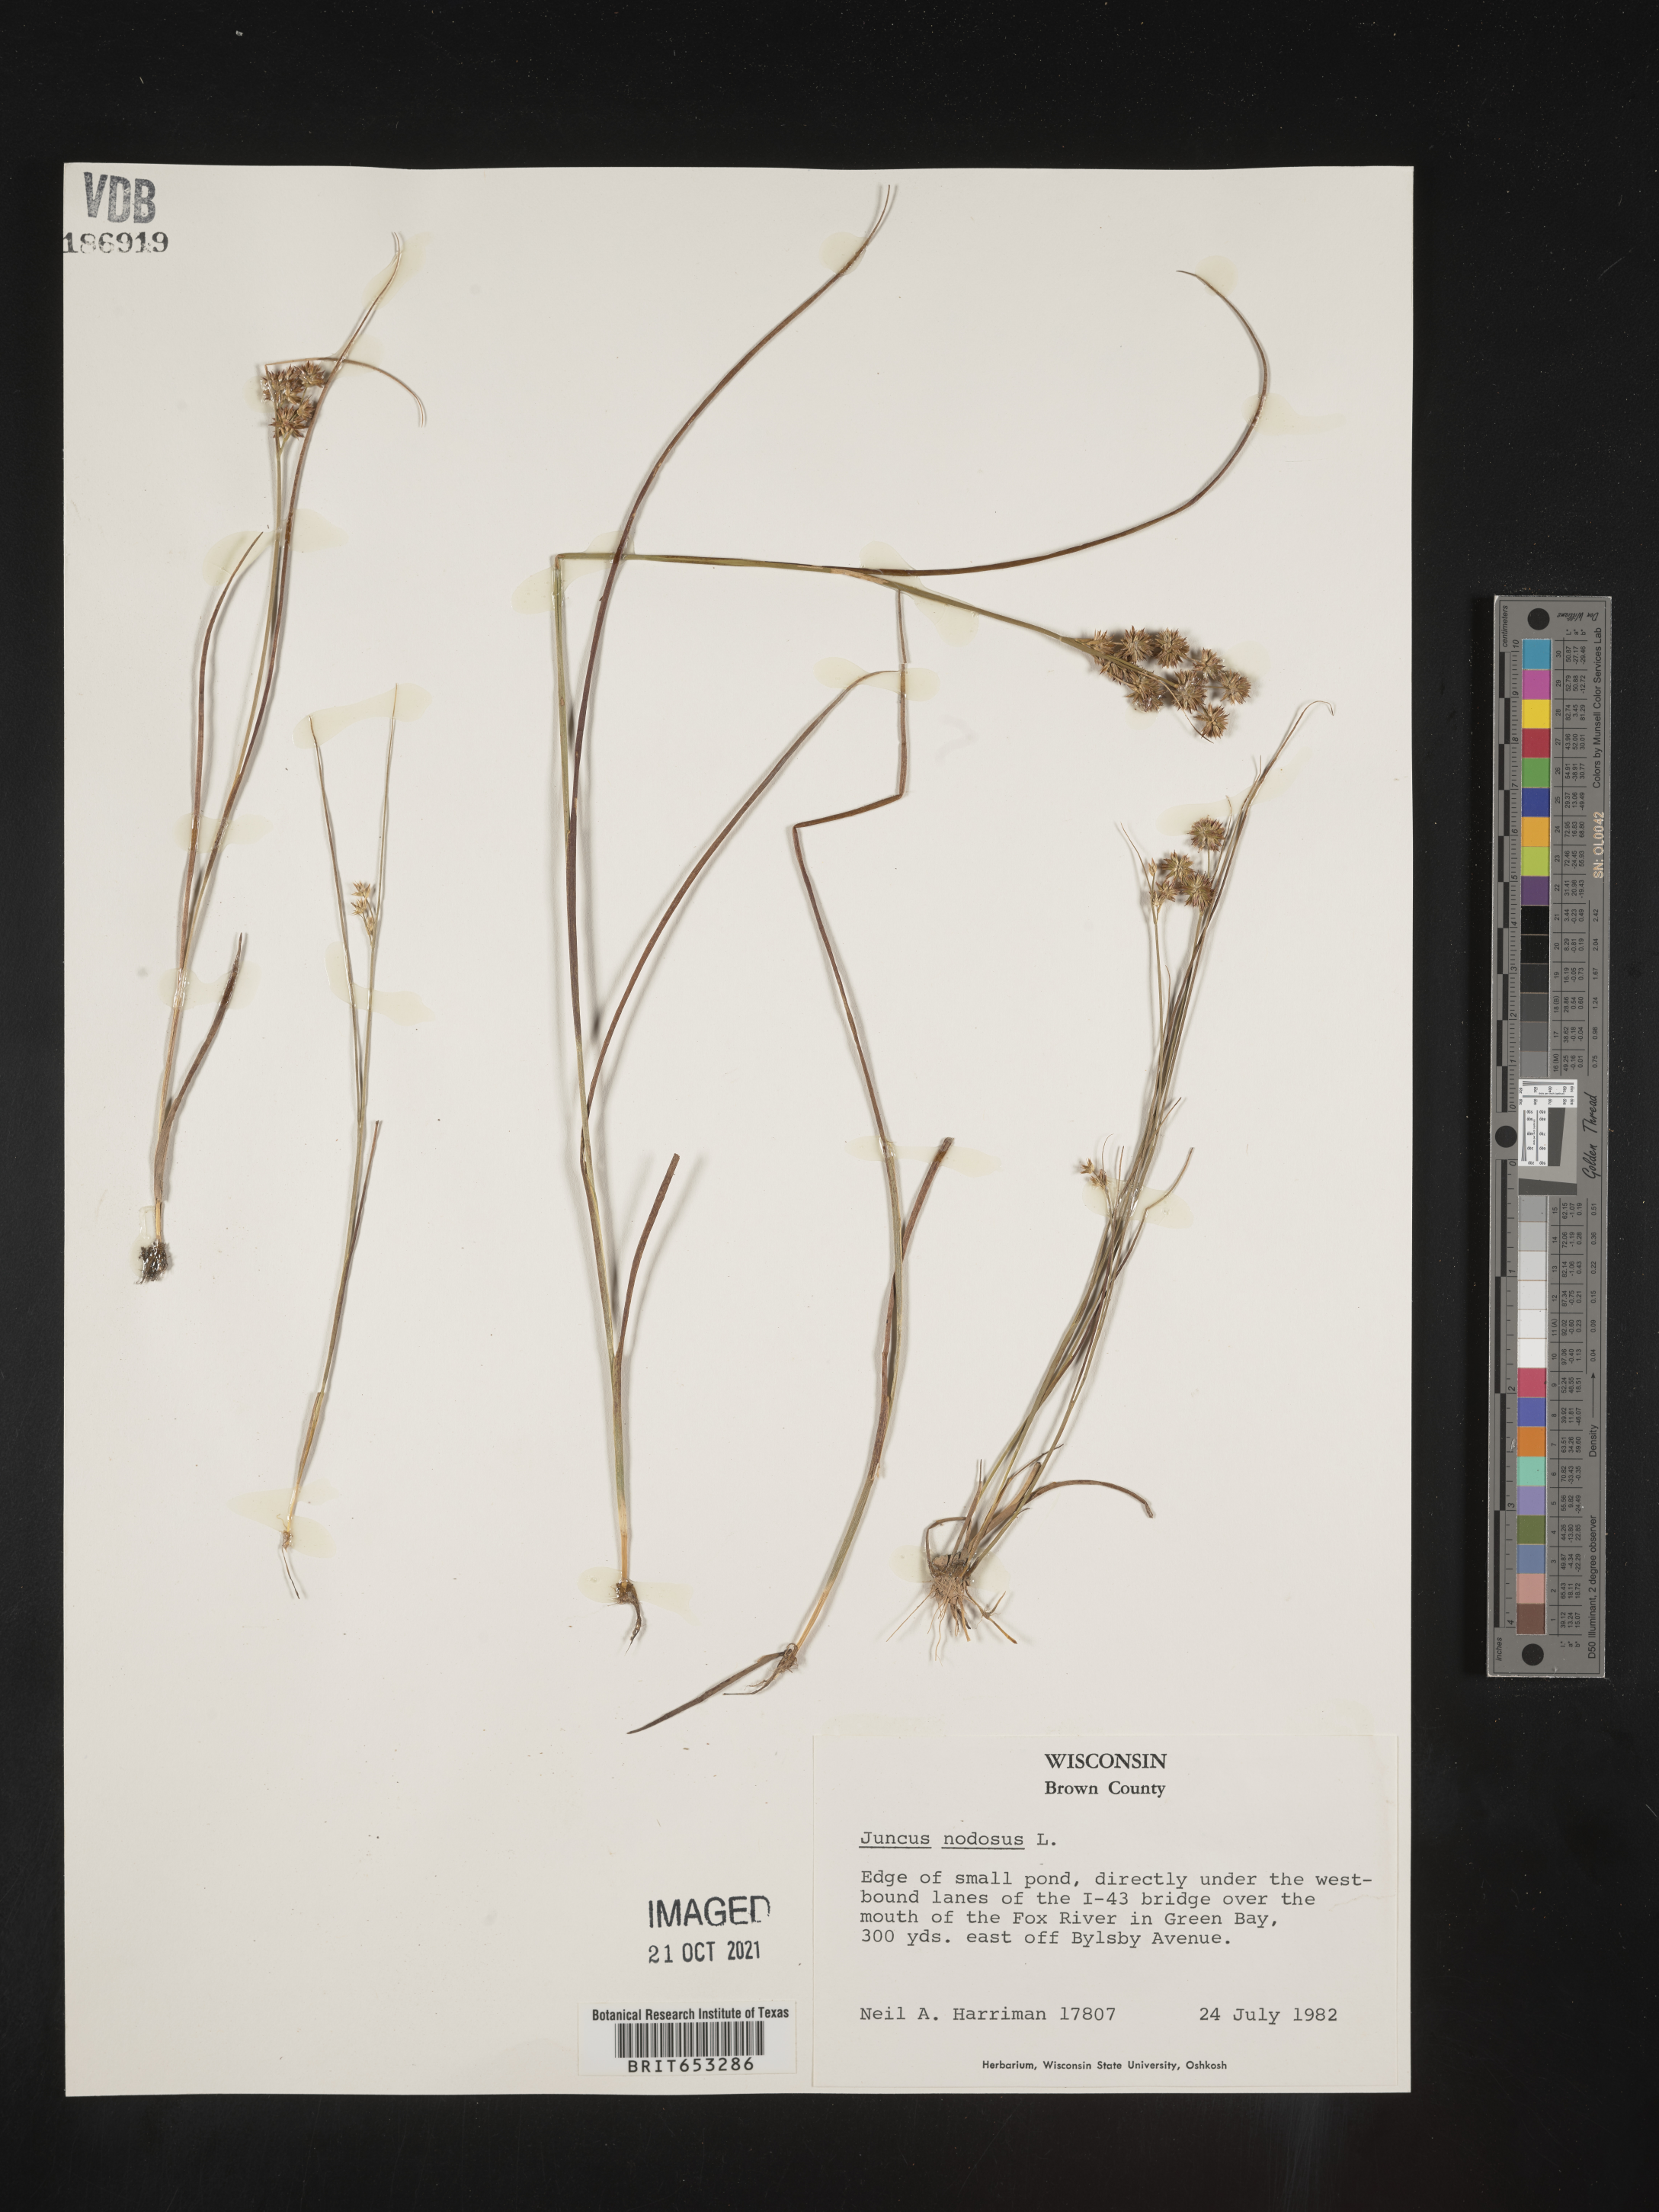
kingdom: Plantae
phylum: Tracheophyta
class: Liliopsida
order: Poales
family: Juncaceae
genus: Juncus
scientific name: Juncus nodosus
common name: Knotted rush
